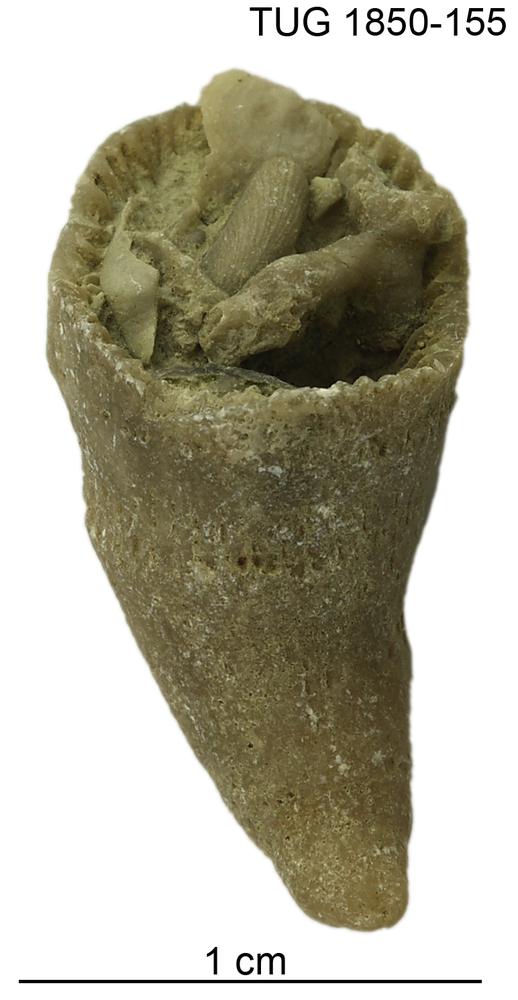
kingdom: Animalia
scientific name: Animalia
